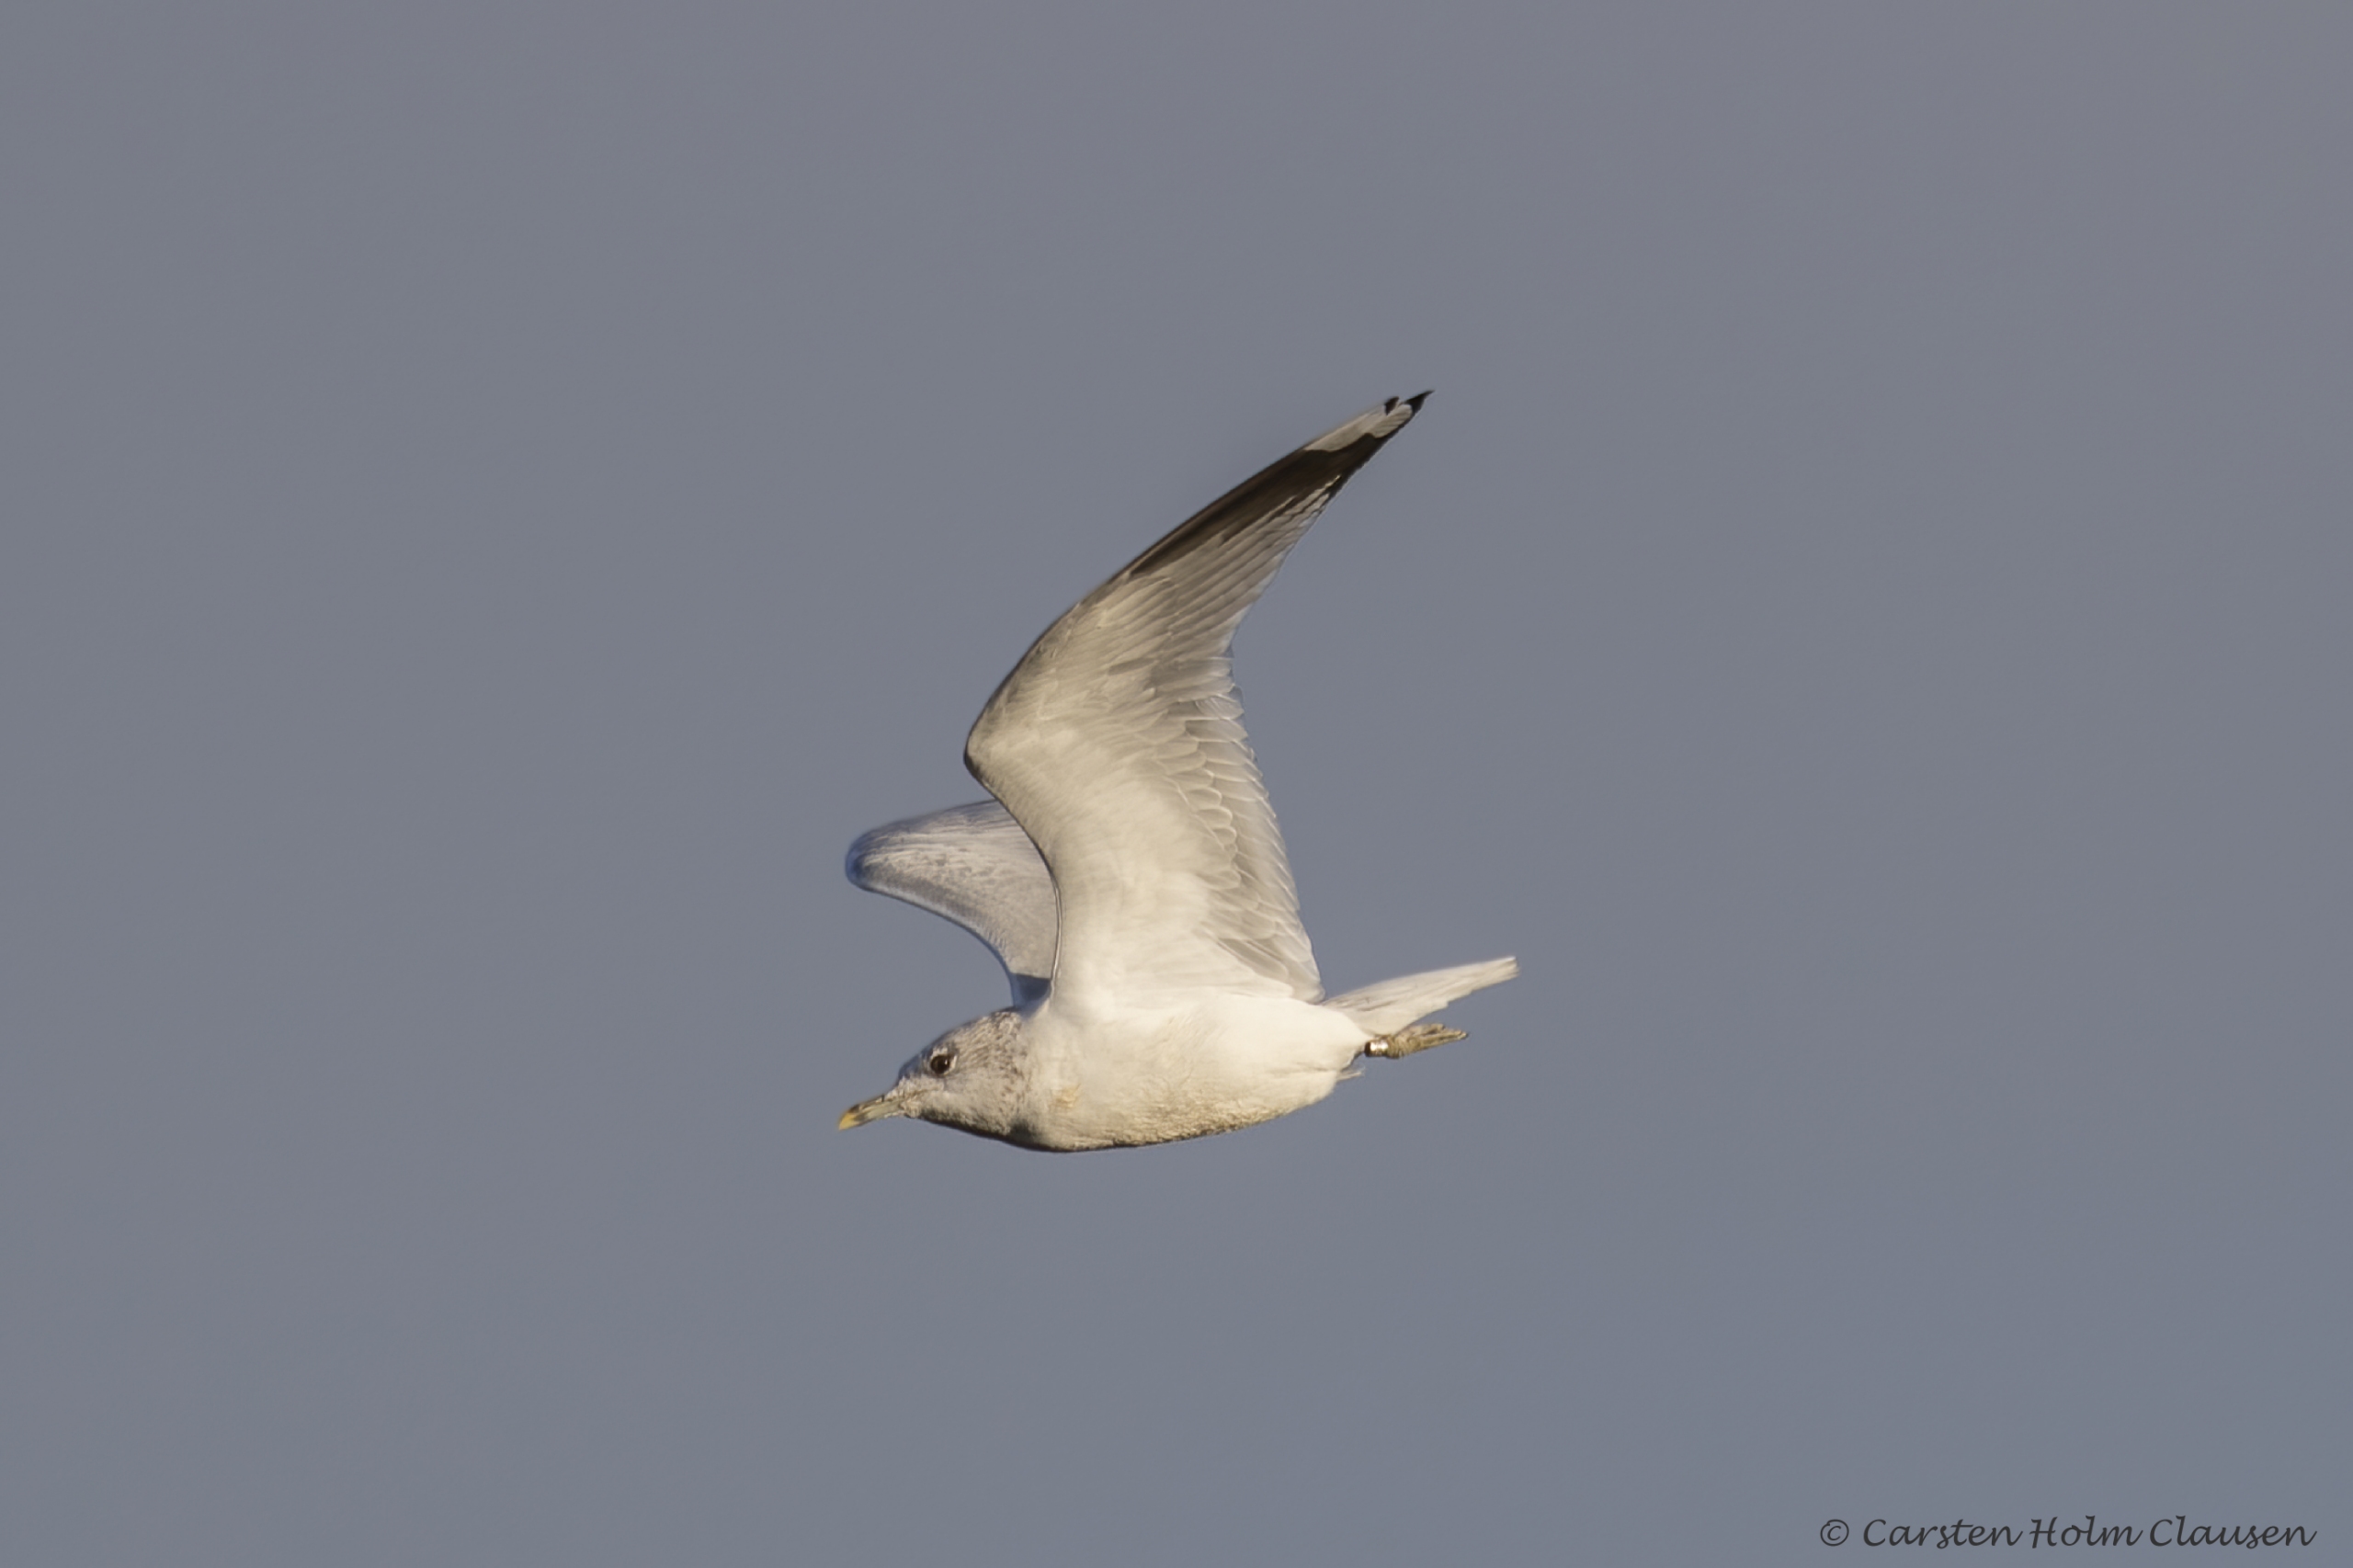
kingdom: Animalia
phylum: Chordata
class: Aves
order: Charadriiformes
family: Laridae
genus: Larus
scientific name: Larus canus
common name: Stormmåge
